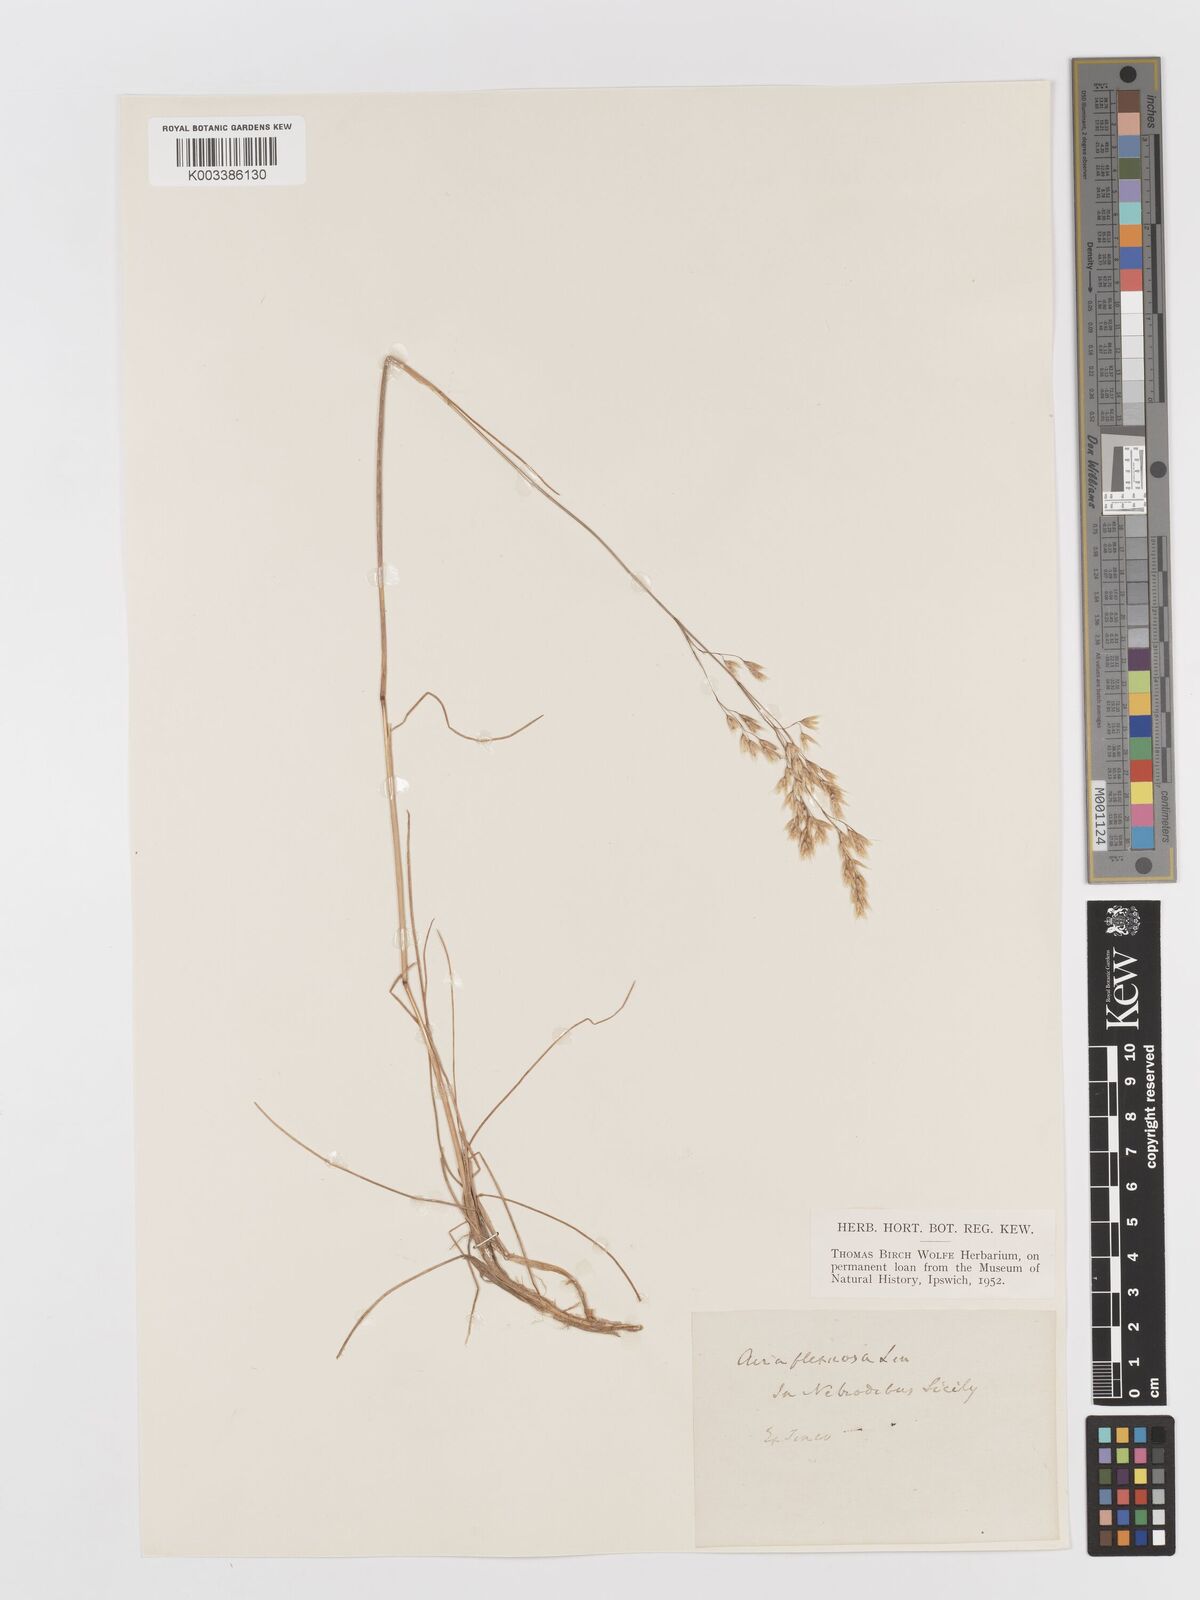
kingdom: Plantae
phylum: Tracheophyta
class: Liliopsida
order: Poales
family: Poaceae
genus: Avenella
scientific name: Avenella flexuosa
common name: Wavy hairgrass
